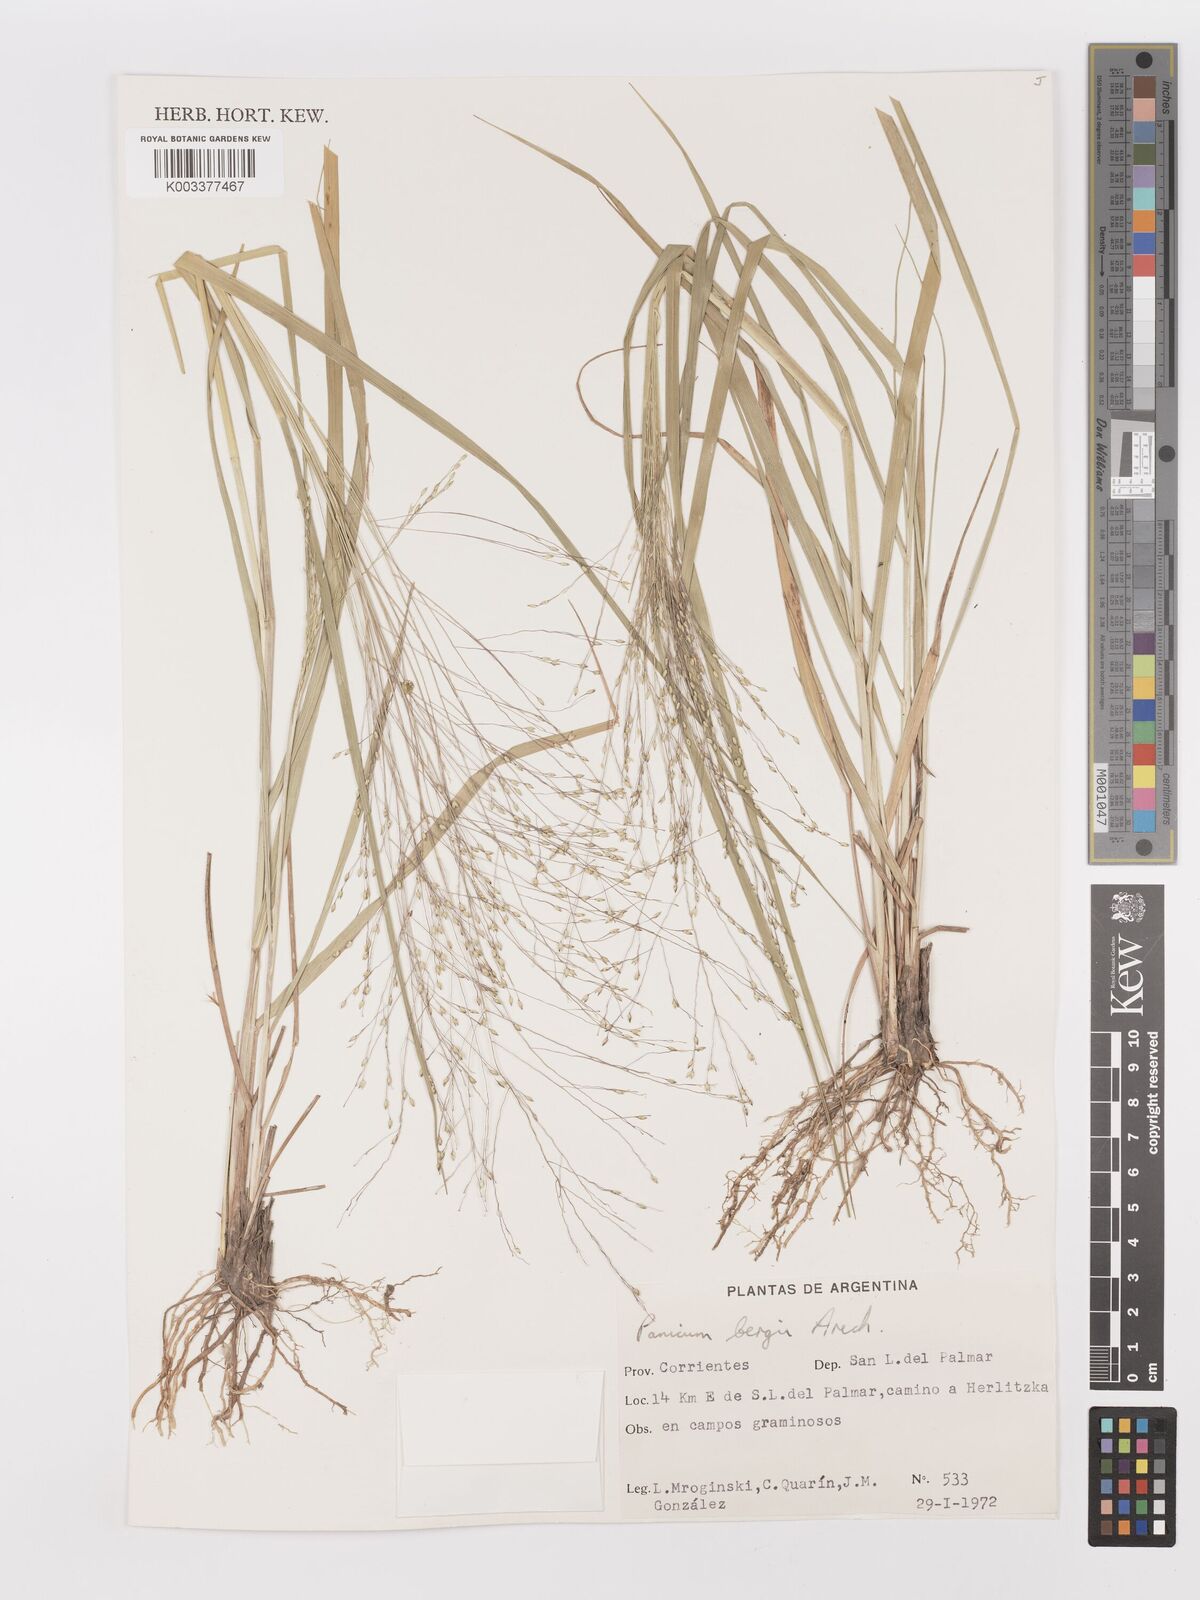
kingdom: Plantae
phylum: Tracheophyta
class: Liliopsida
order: Poales
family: Poaceae
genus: Panicum
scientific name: Panicum bergii
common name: Berg's panicgrass
